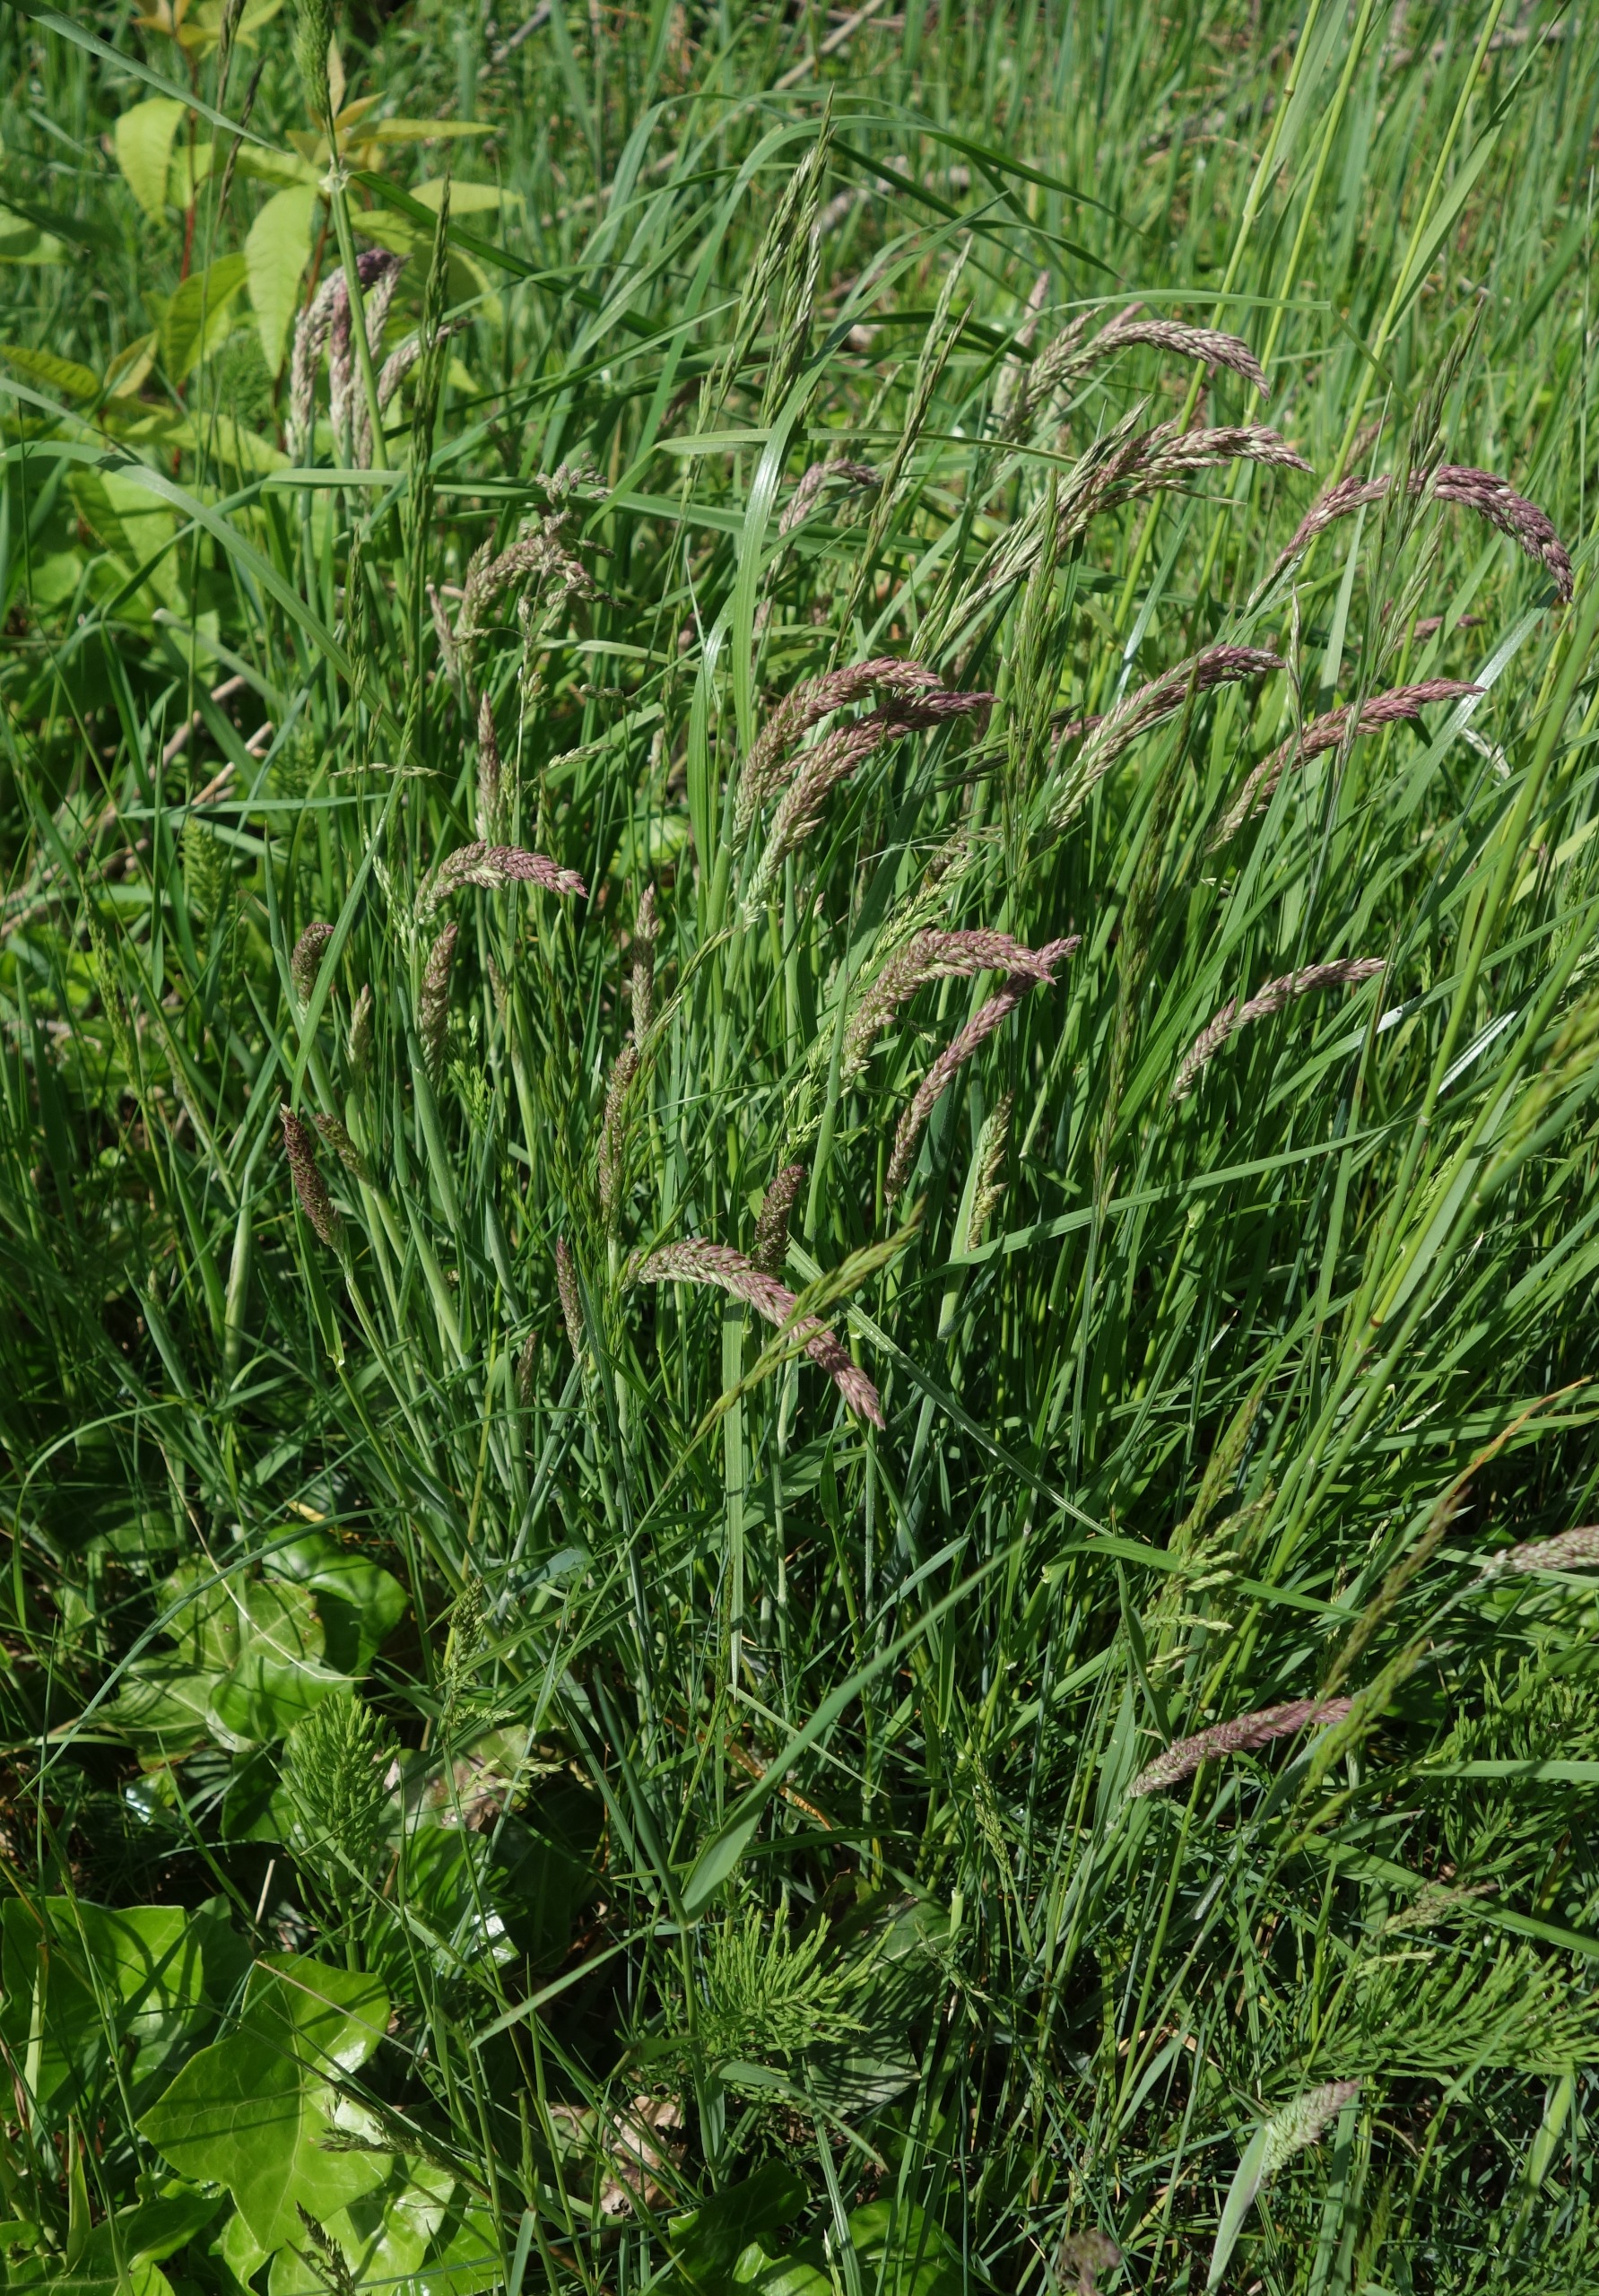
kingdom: Plantae
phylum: Tracheophyta
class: Liliopsida
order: Poales
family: Poaceae
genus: Holcus
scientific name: Holcus lanatus
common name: Fløjlsgræs
